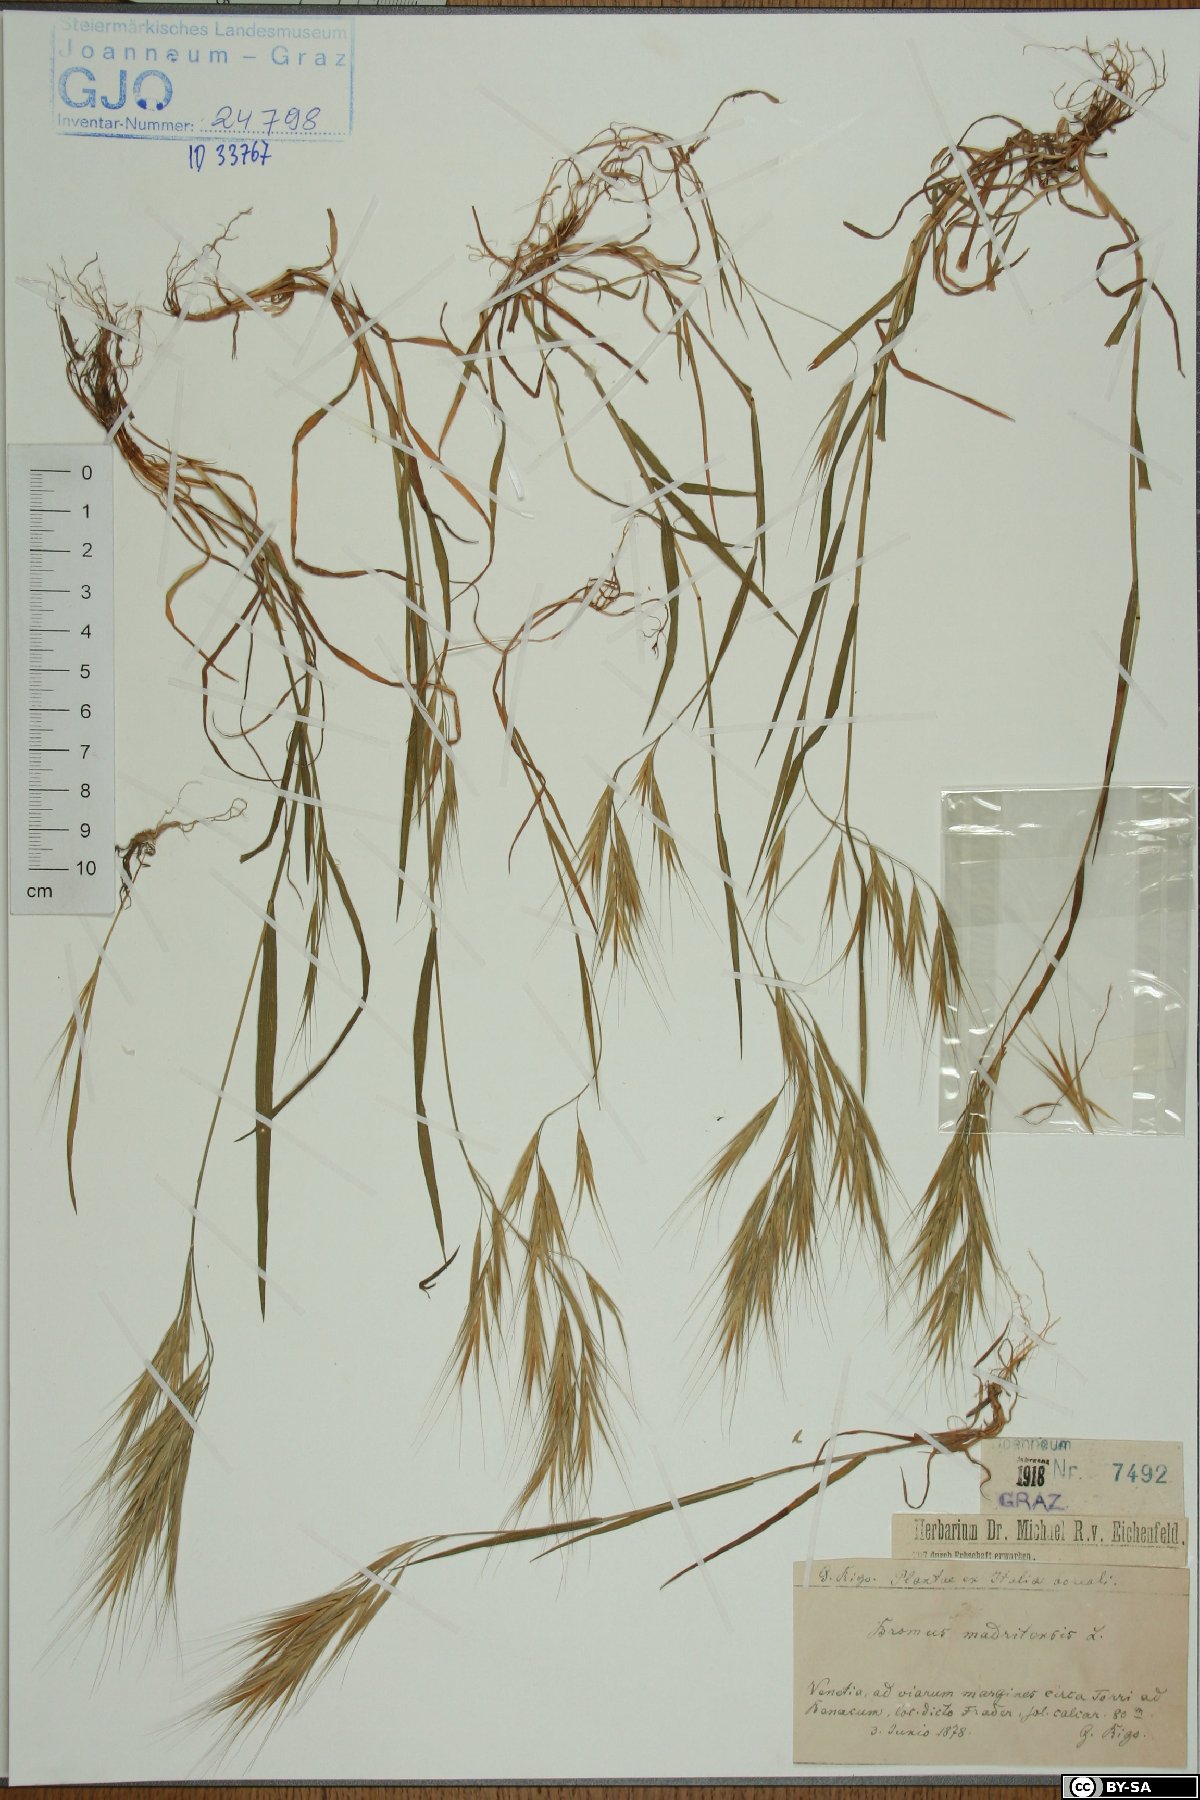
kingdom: Plantae
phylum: Tracheophyta
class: Liliopsida
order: Poales
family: Poaceae
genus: Bromus
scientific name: Bromus madritensis
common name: Compact brome
